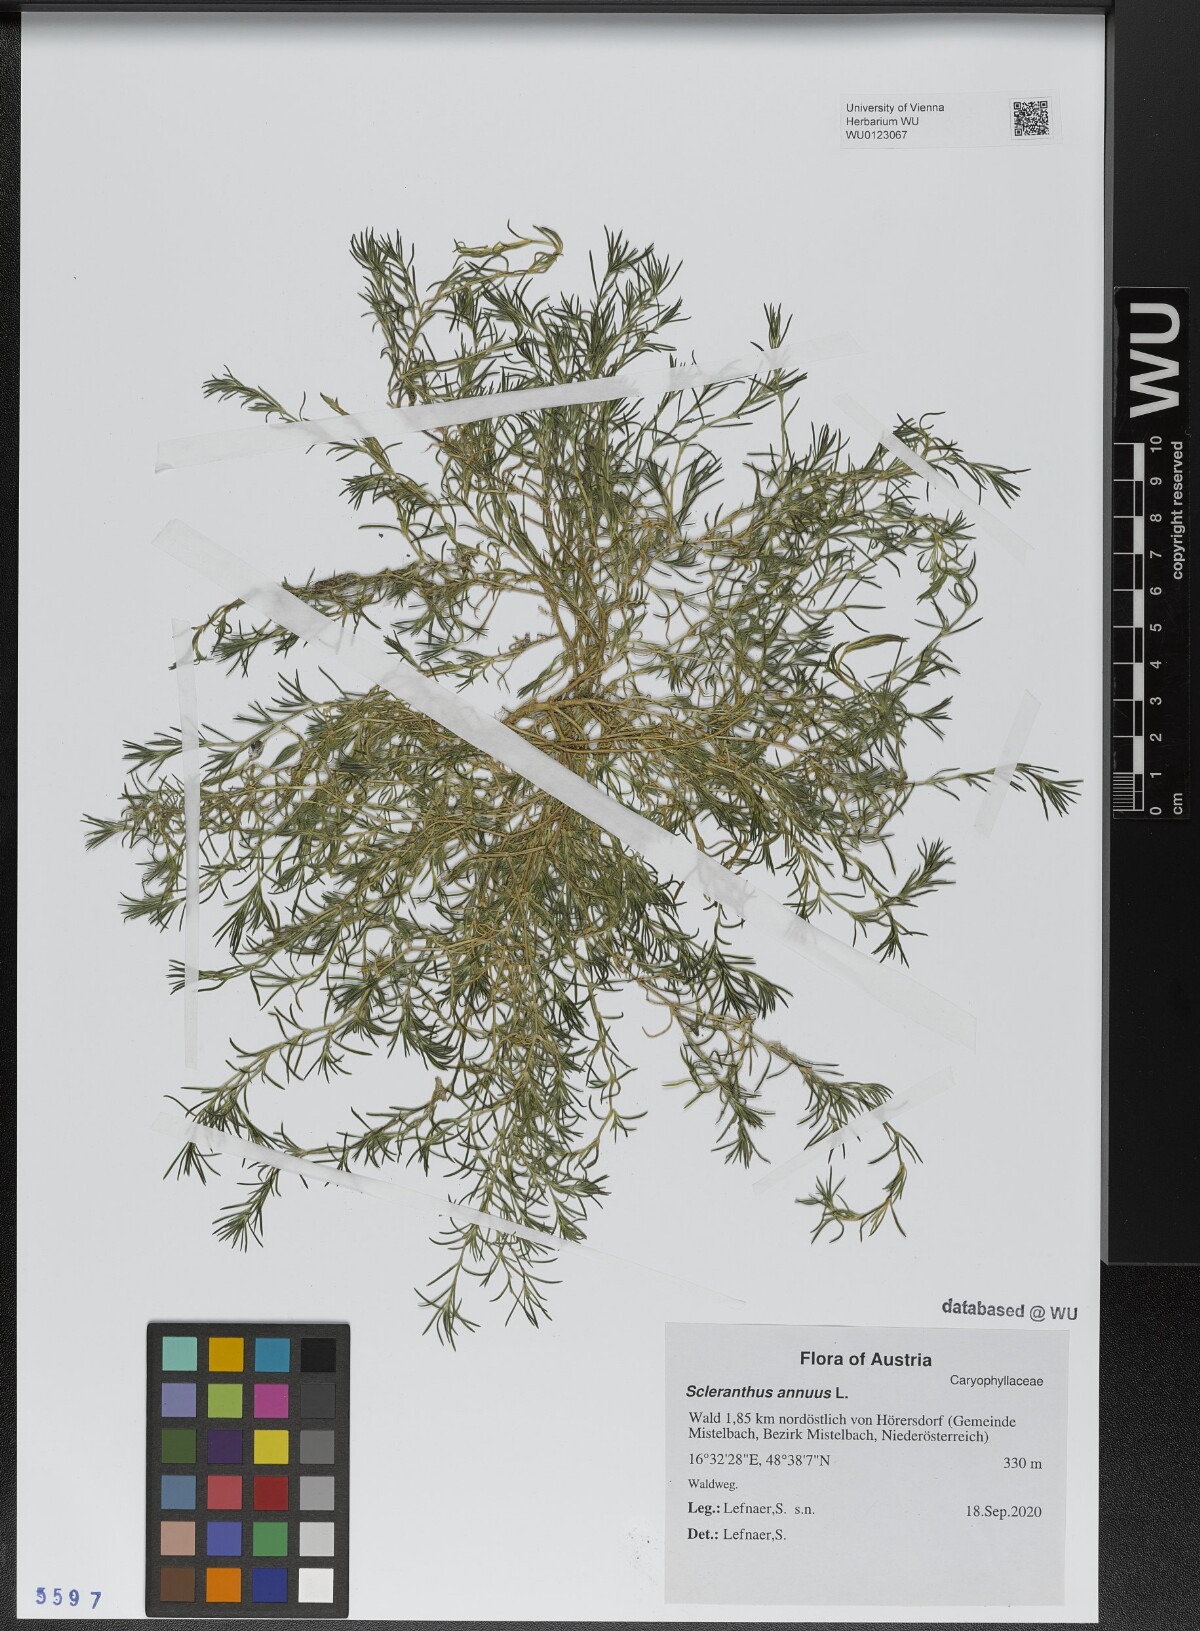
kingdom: Plantae
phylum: Tracheophyta
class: Magnoliopsida
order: Caryophyllales
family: Caryophyllaceae
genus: Scleranthus
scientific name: Scleranthus annuus
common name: Annual knawel
